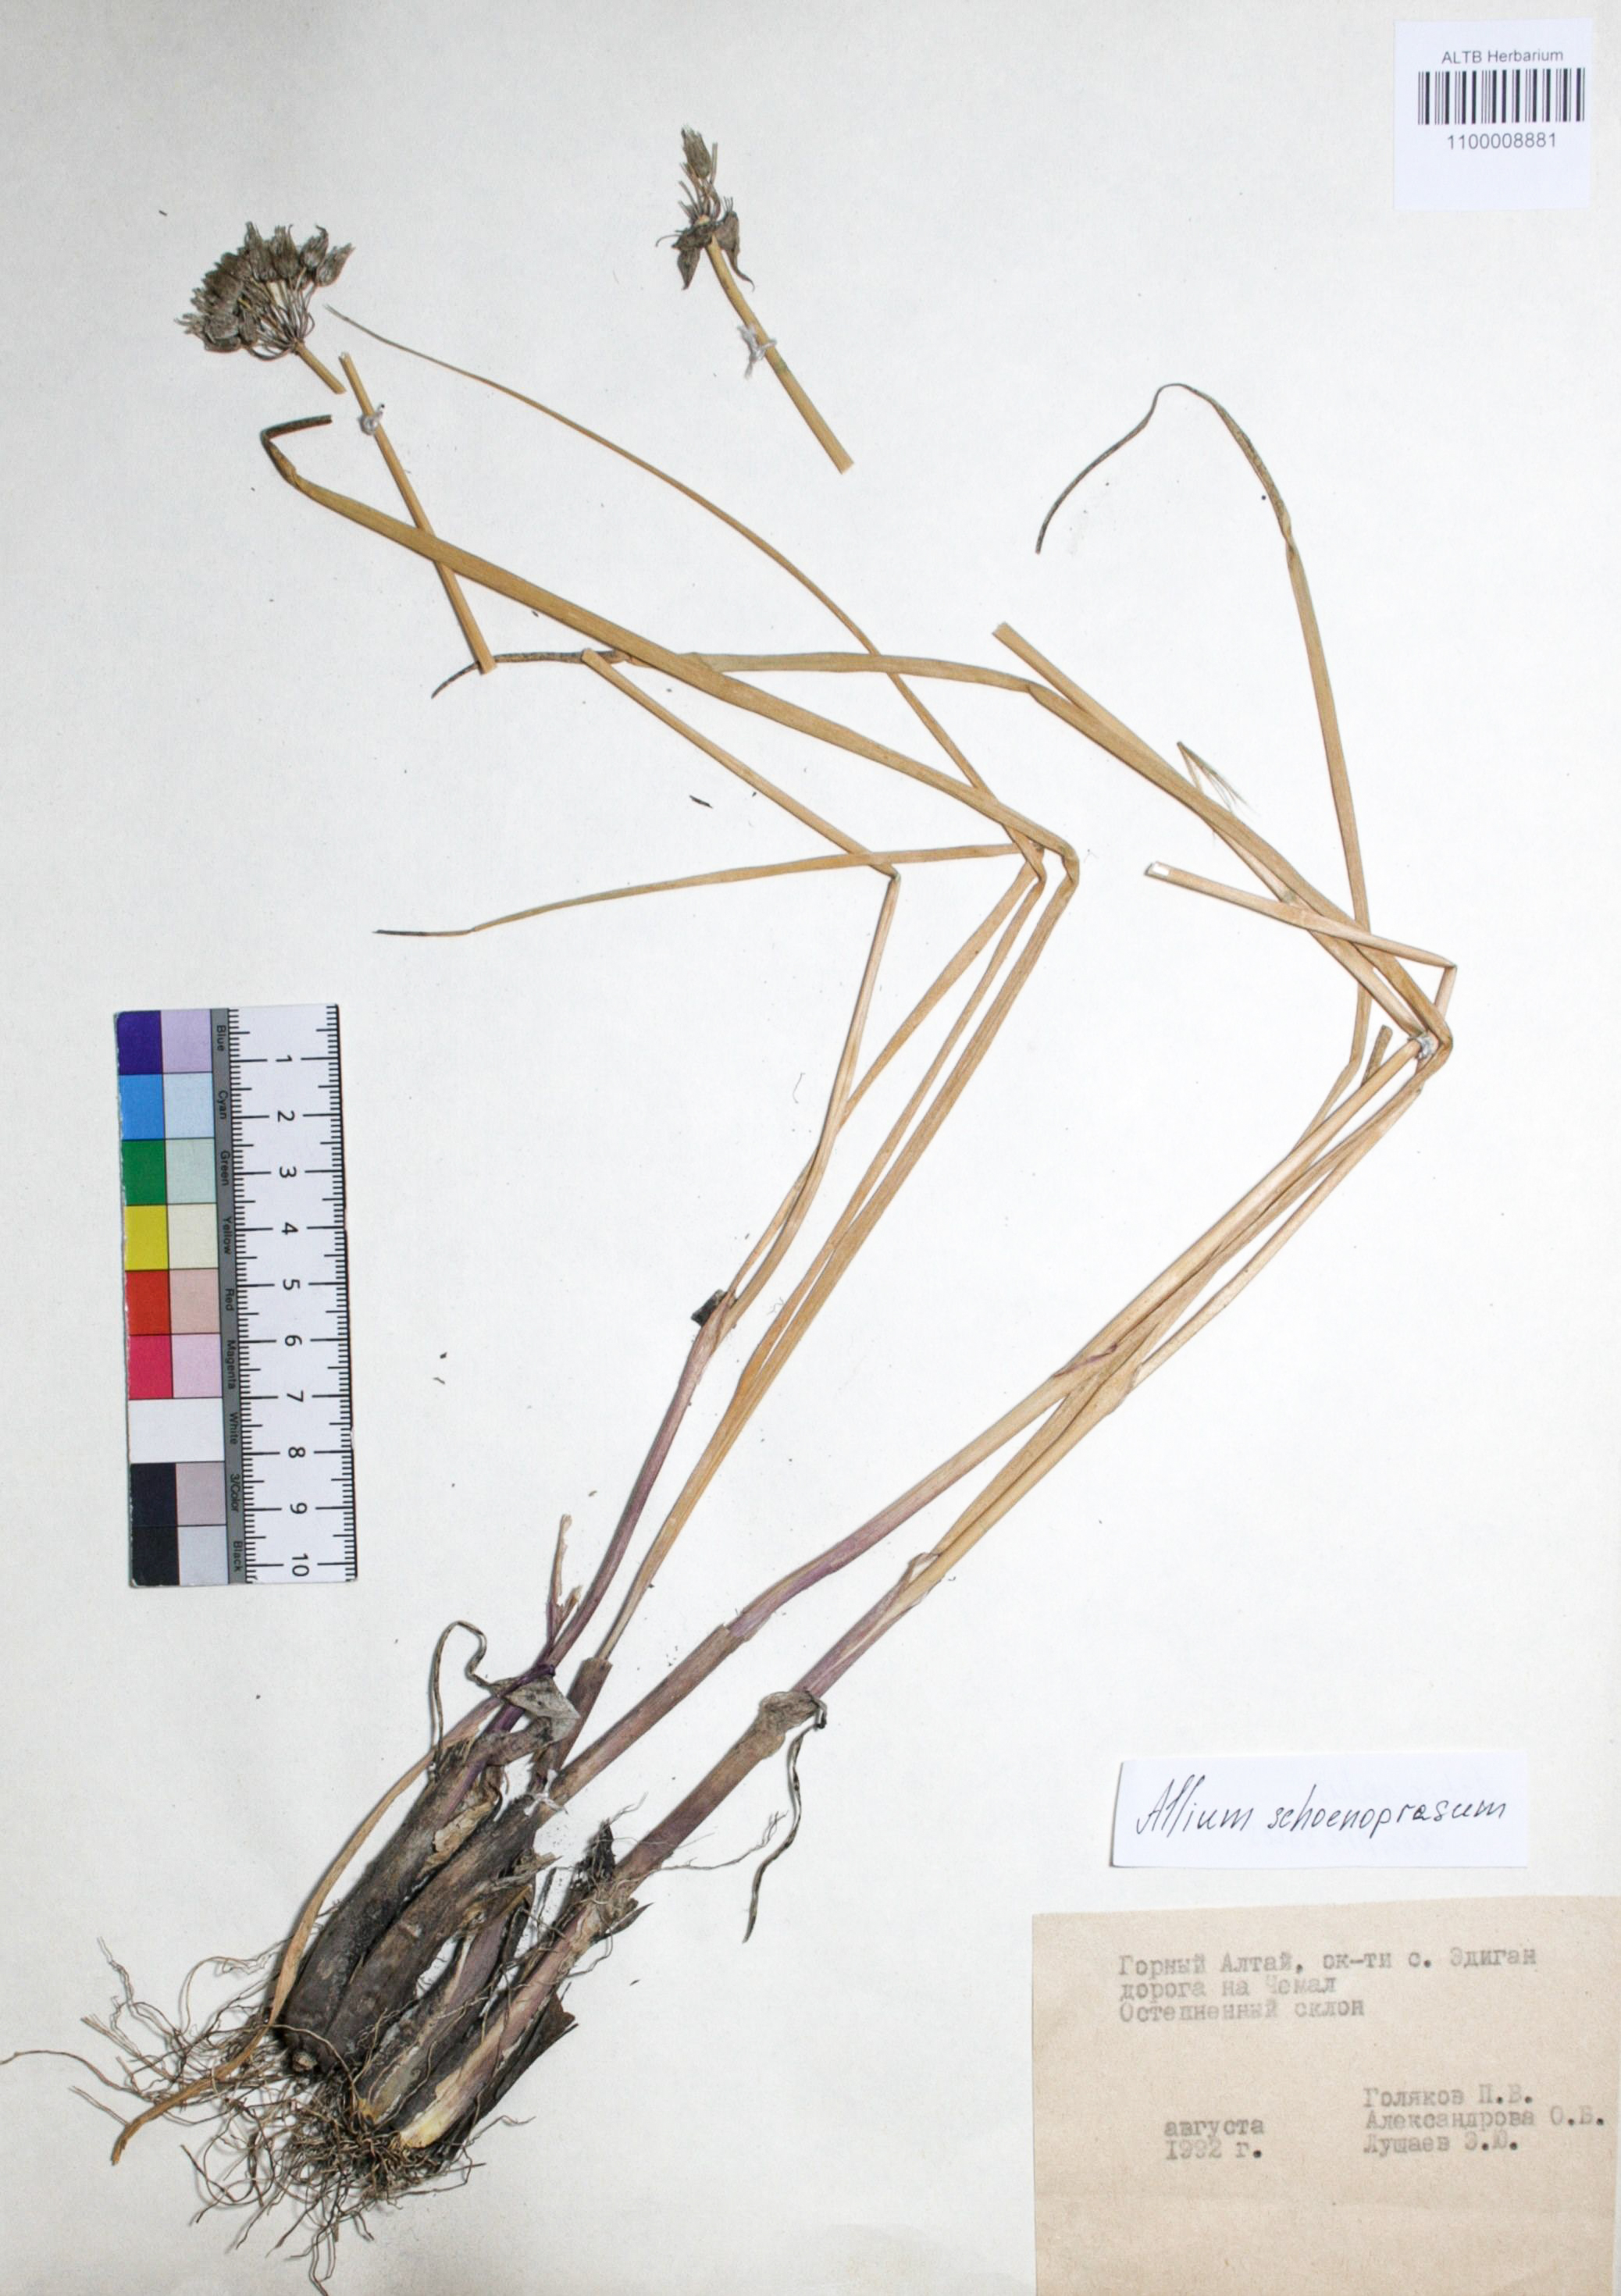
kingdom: Plantae
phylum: Tracheophyta
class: Liliopsida
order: Asparagales
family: Amaryllidaceae
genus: Allium
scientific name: Allium schoenoprasum
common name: Chives
